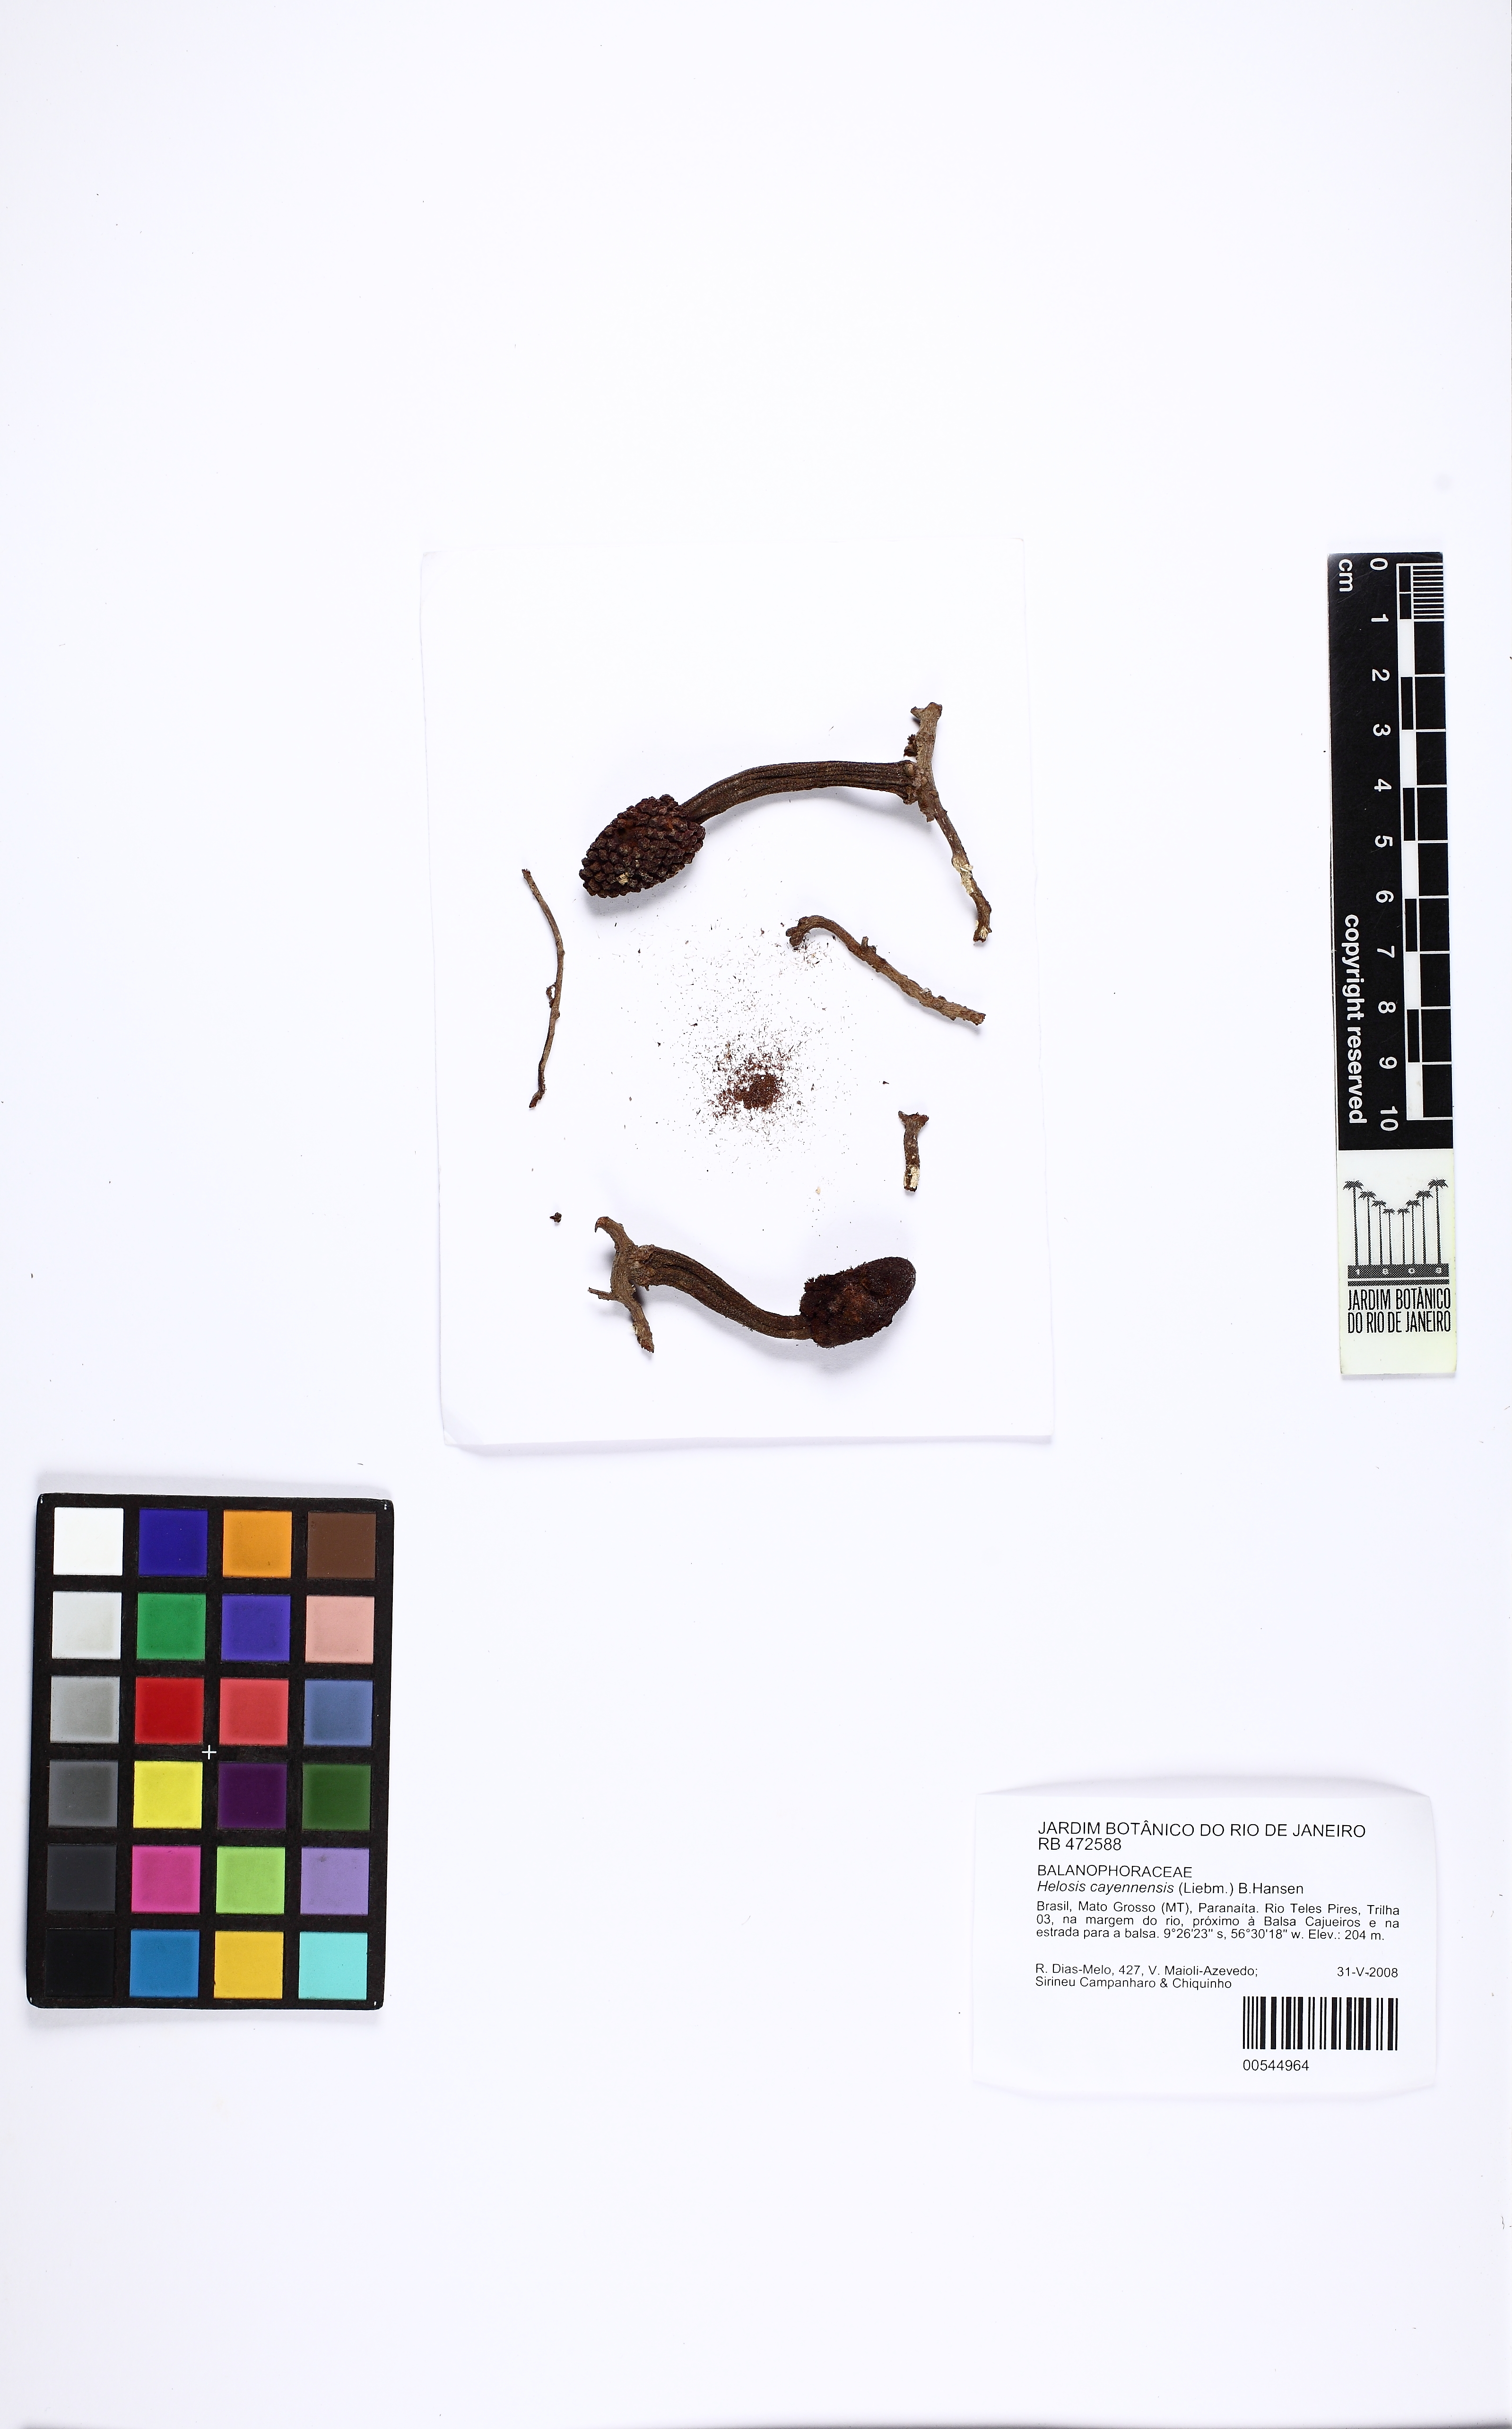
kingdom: Plantae
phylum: Tracheophyta
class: Magnoliopsida
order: Santalales
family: Balanophoraceae
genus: Helosis
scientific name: Helosis cayennensis
